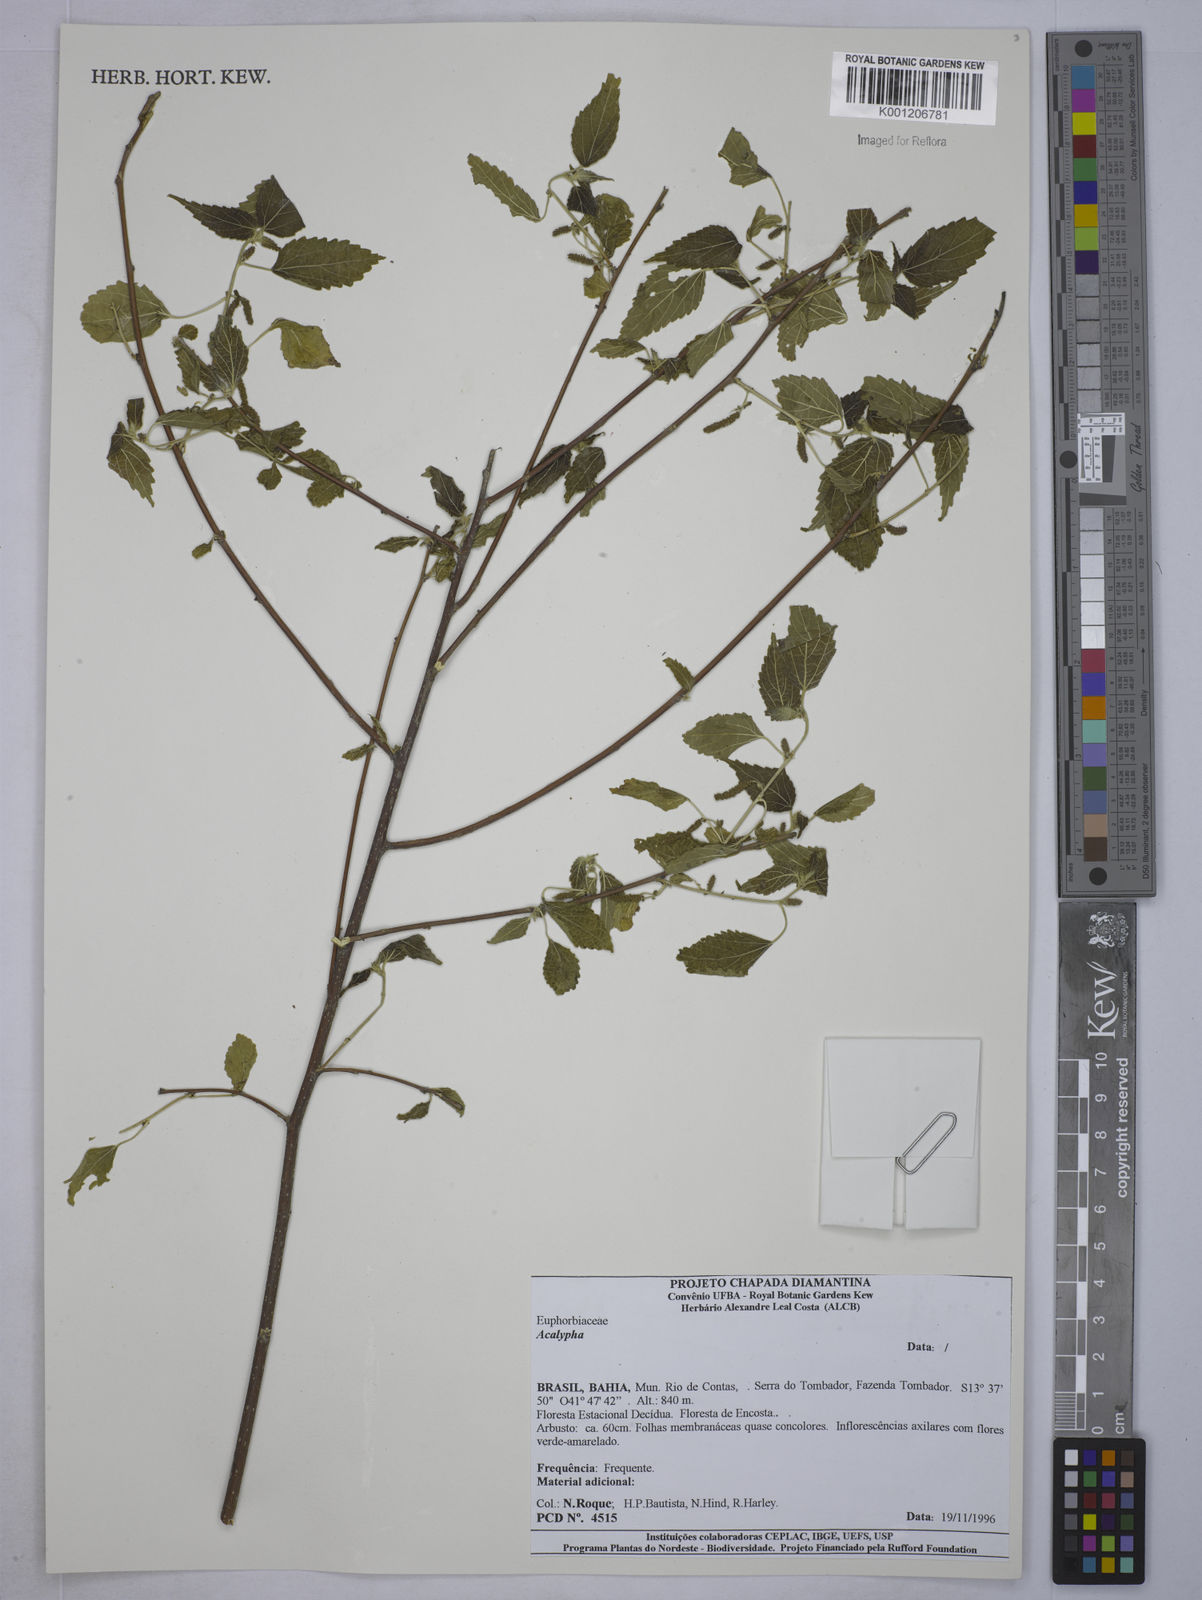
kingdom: Plantae
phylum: Tracheophyta
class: Magnoliopsida
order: Malpighiales
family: Euphorbiaceae
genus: Acalypha
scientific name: Acalypha
